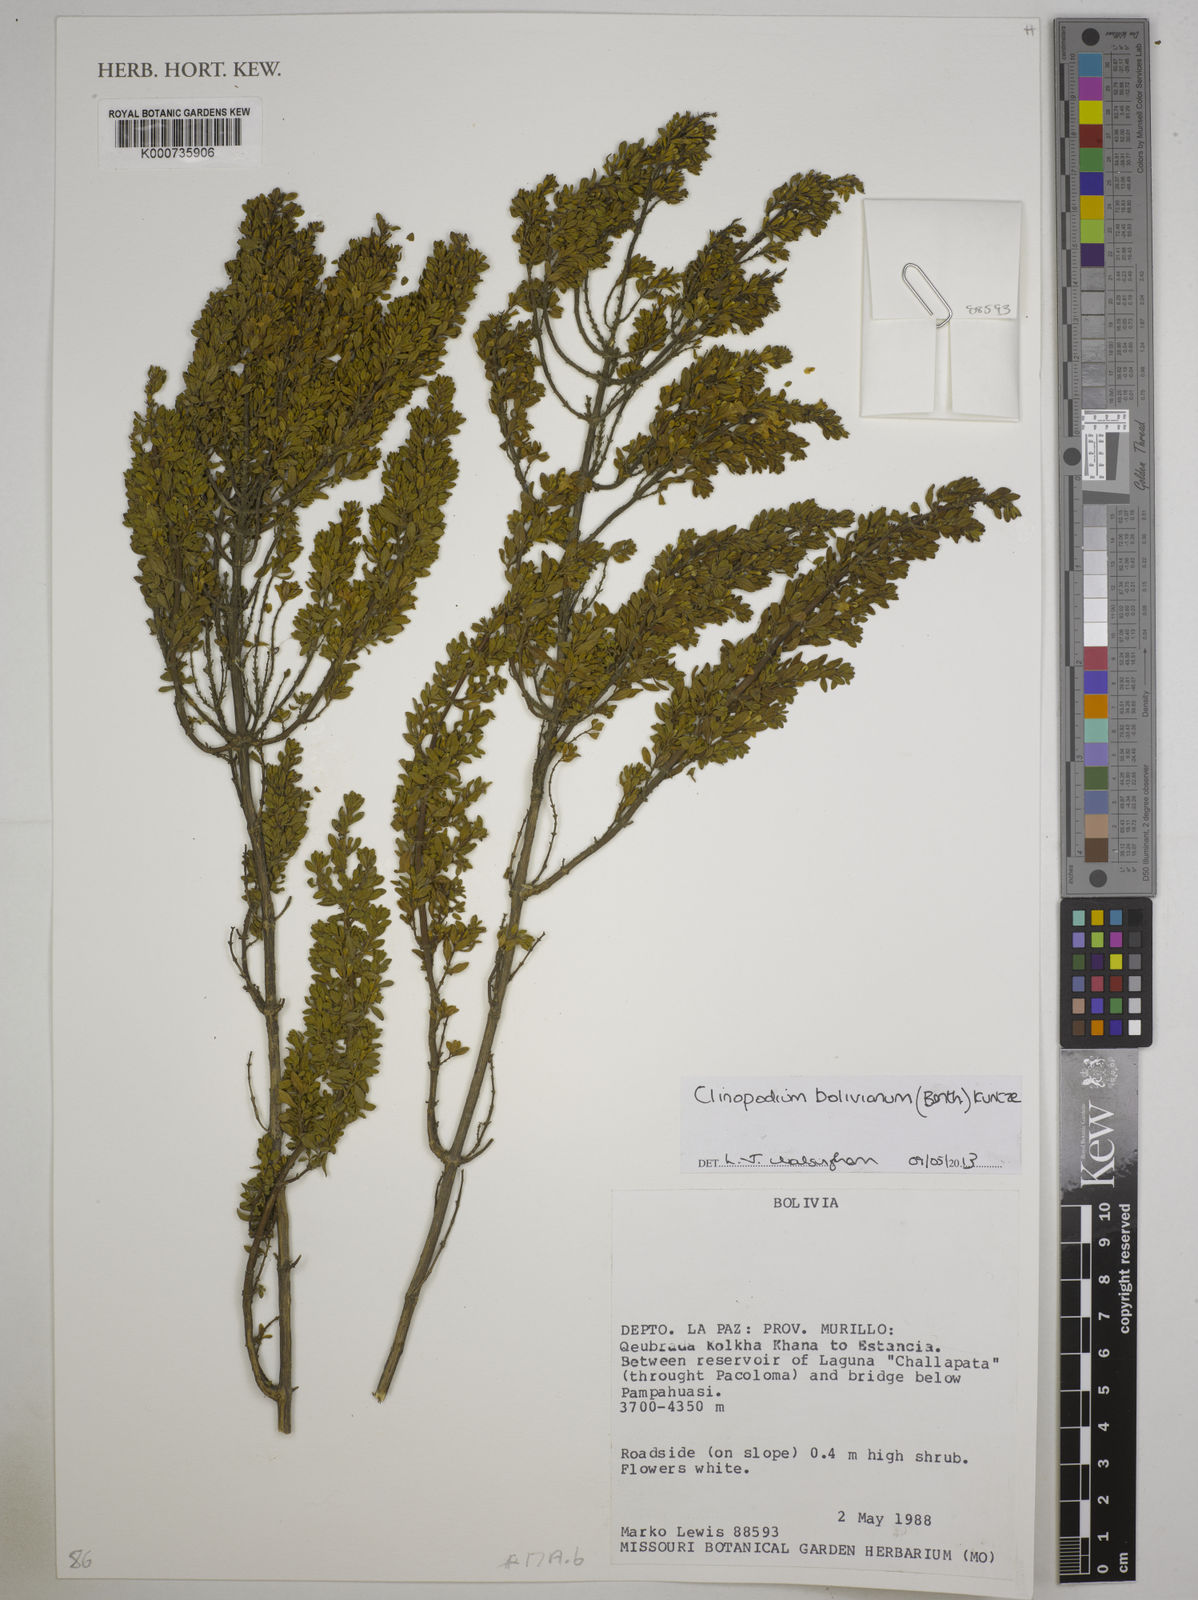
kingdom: Plantae
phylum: Tracheophyta
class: Magnoliopsida
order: Lamiales
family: Lamiaceae
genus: Clinopodium
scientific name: Clinopodium bolivianum
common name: Inca muña
